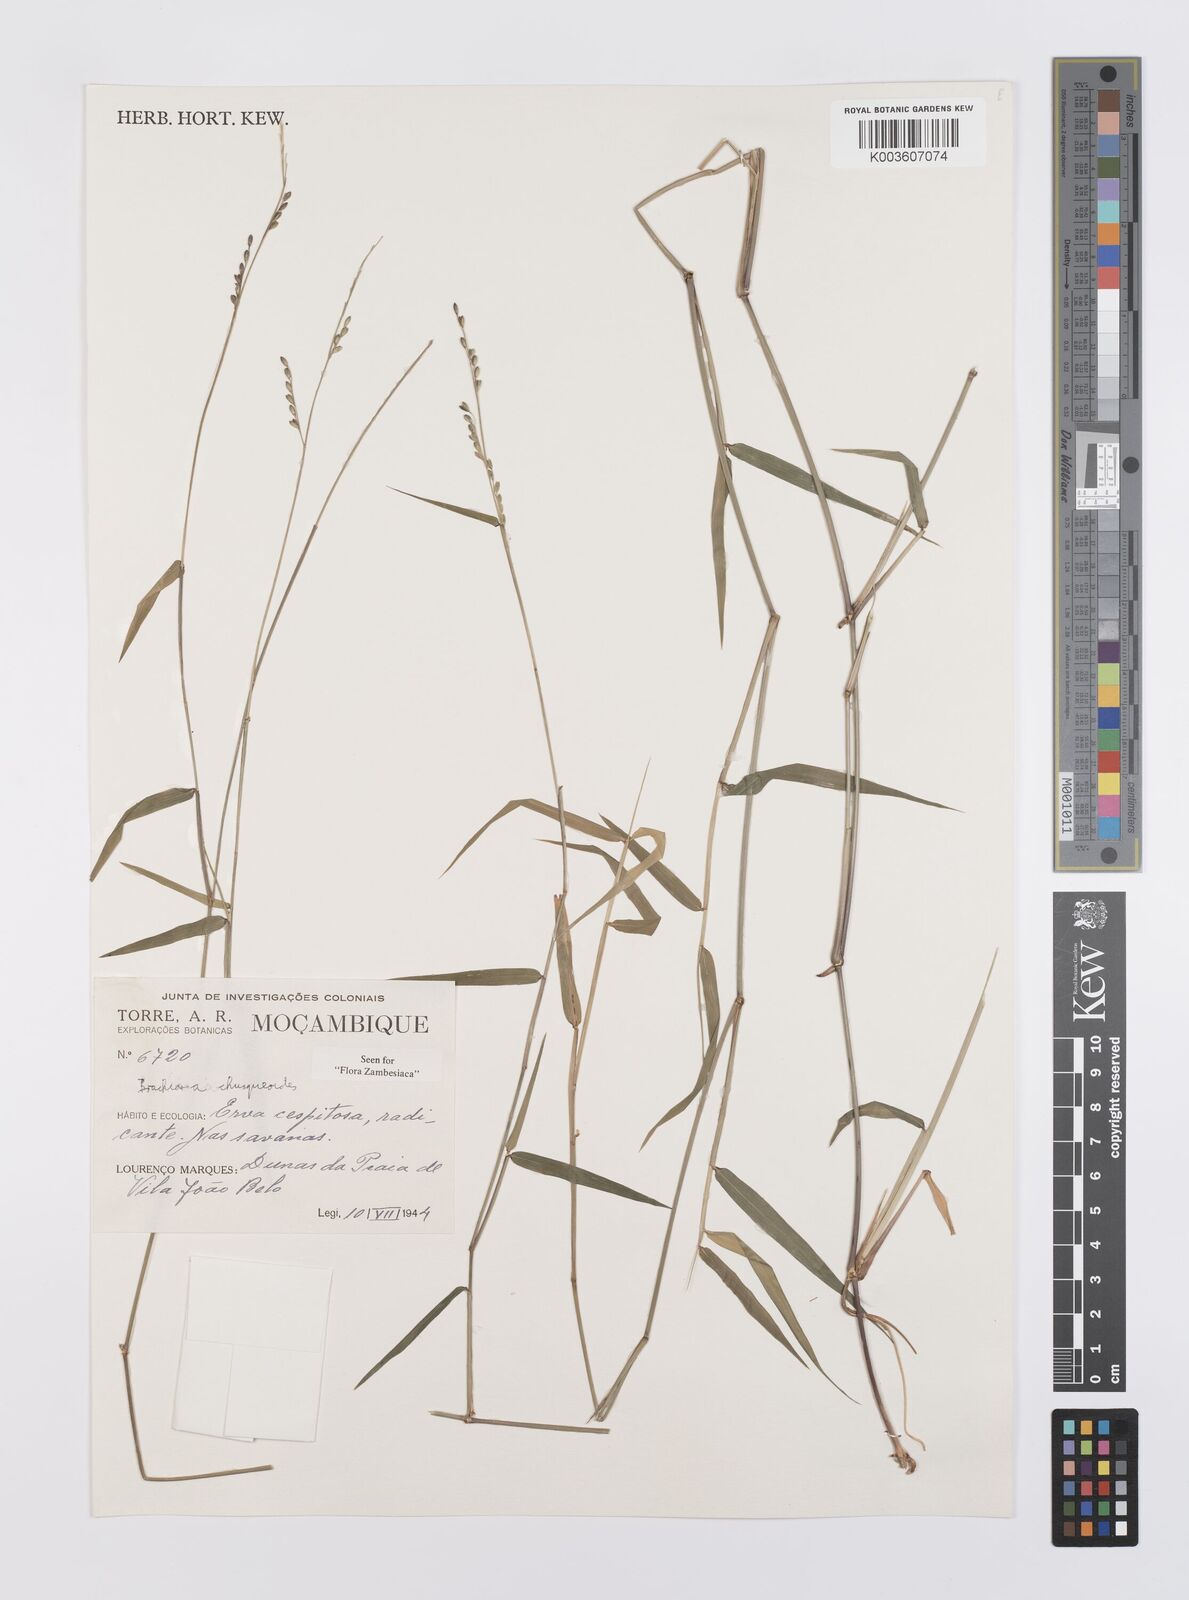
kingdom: Plantae
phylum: Tracheophyta
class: Liliopsida
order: Poales
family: Poaceae
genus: Urochloa
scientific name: Urochloa chusqueoides
